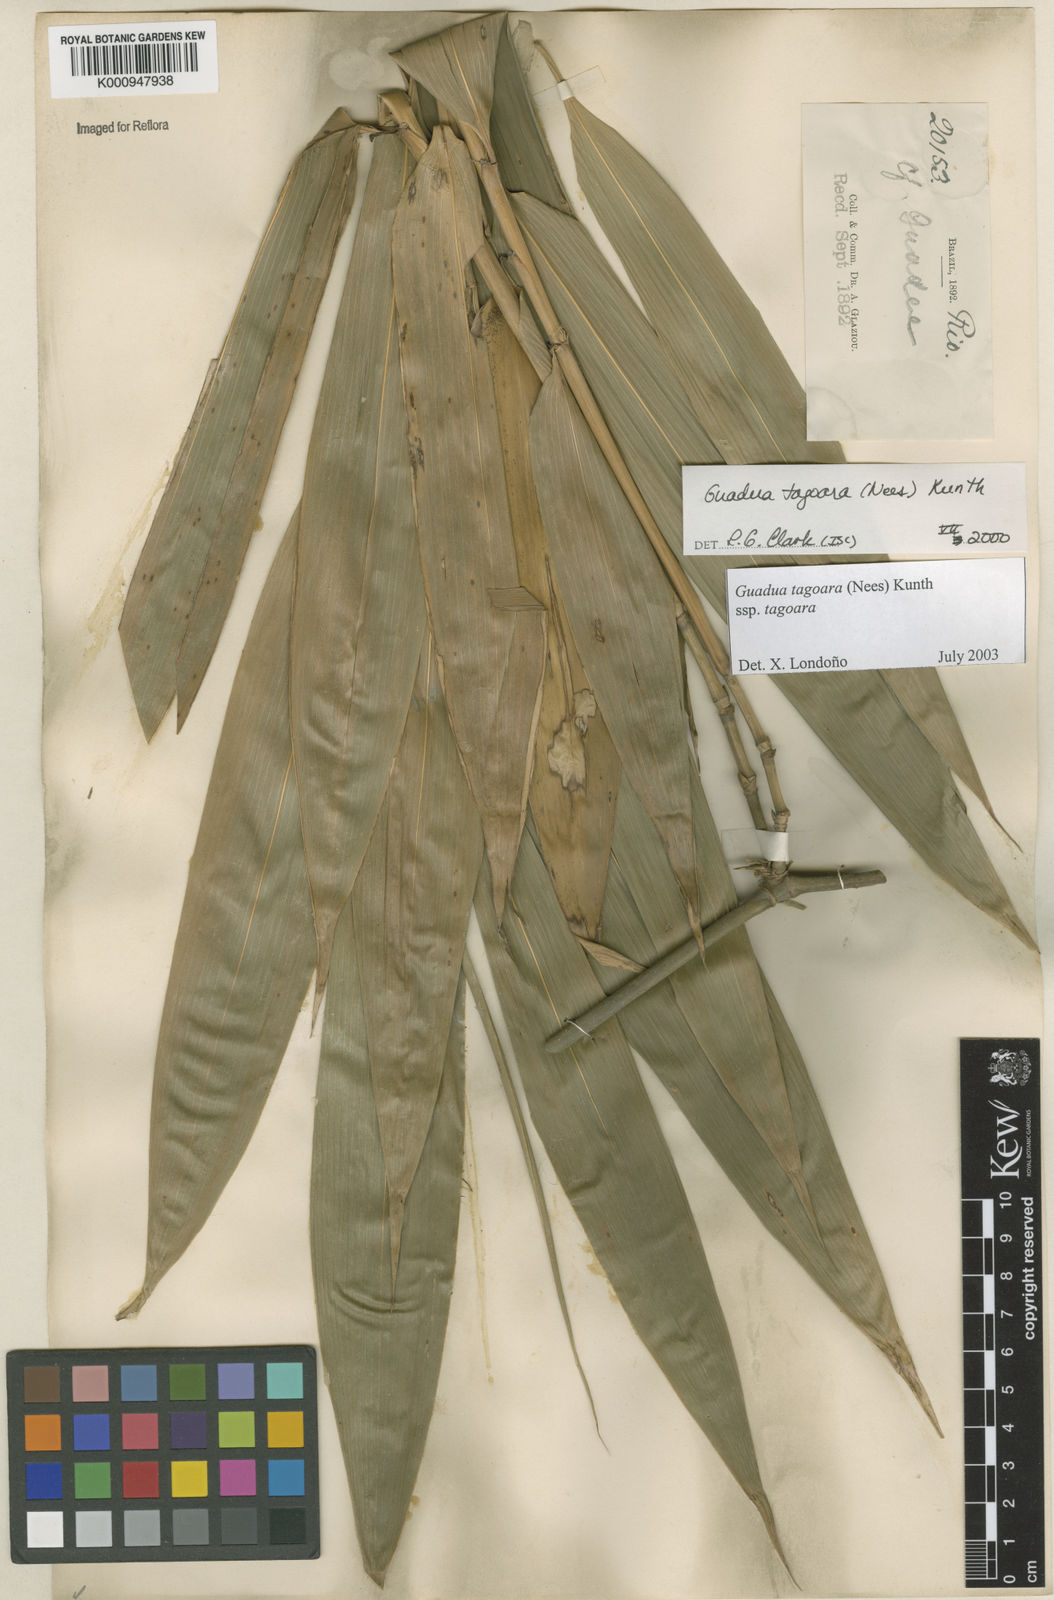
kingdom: Plantae
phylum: Tracheophyta
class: Liliopsida
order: Poales
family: Poaceae
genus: Guadua
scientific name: Guadua tagoara
